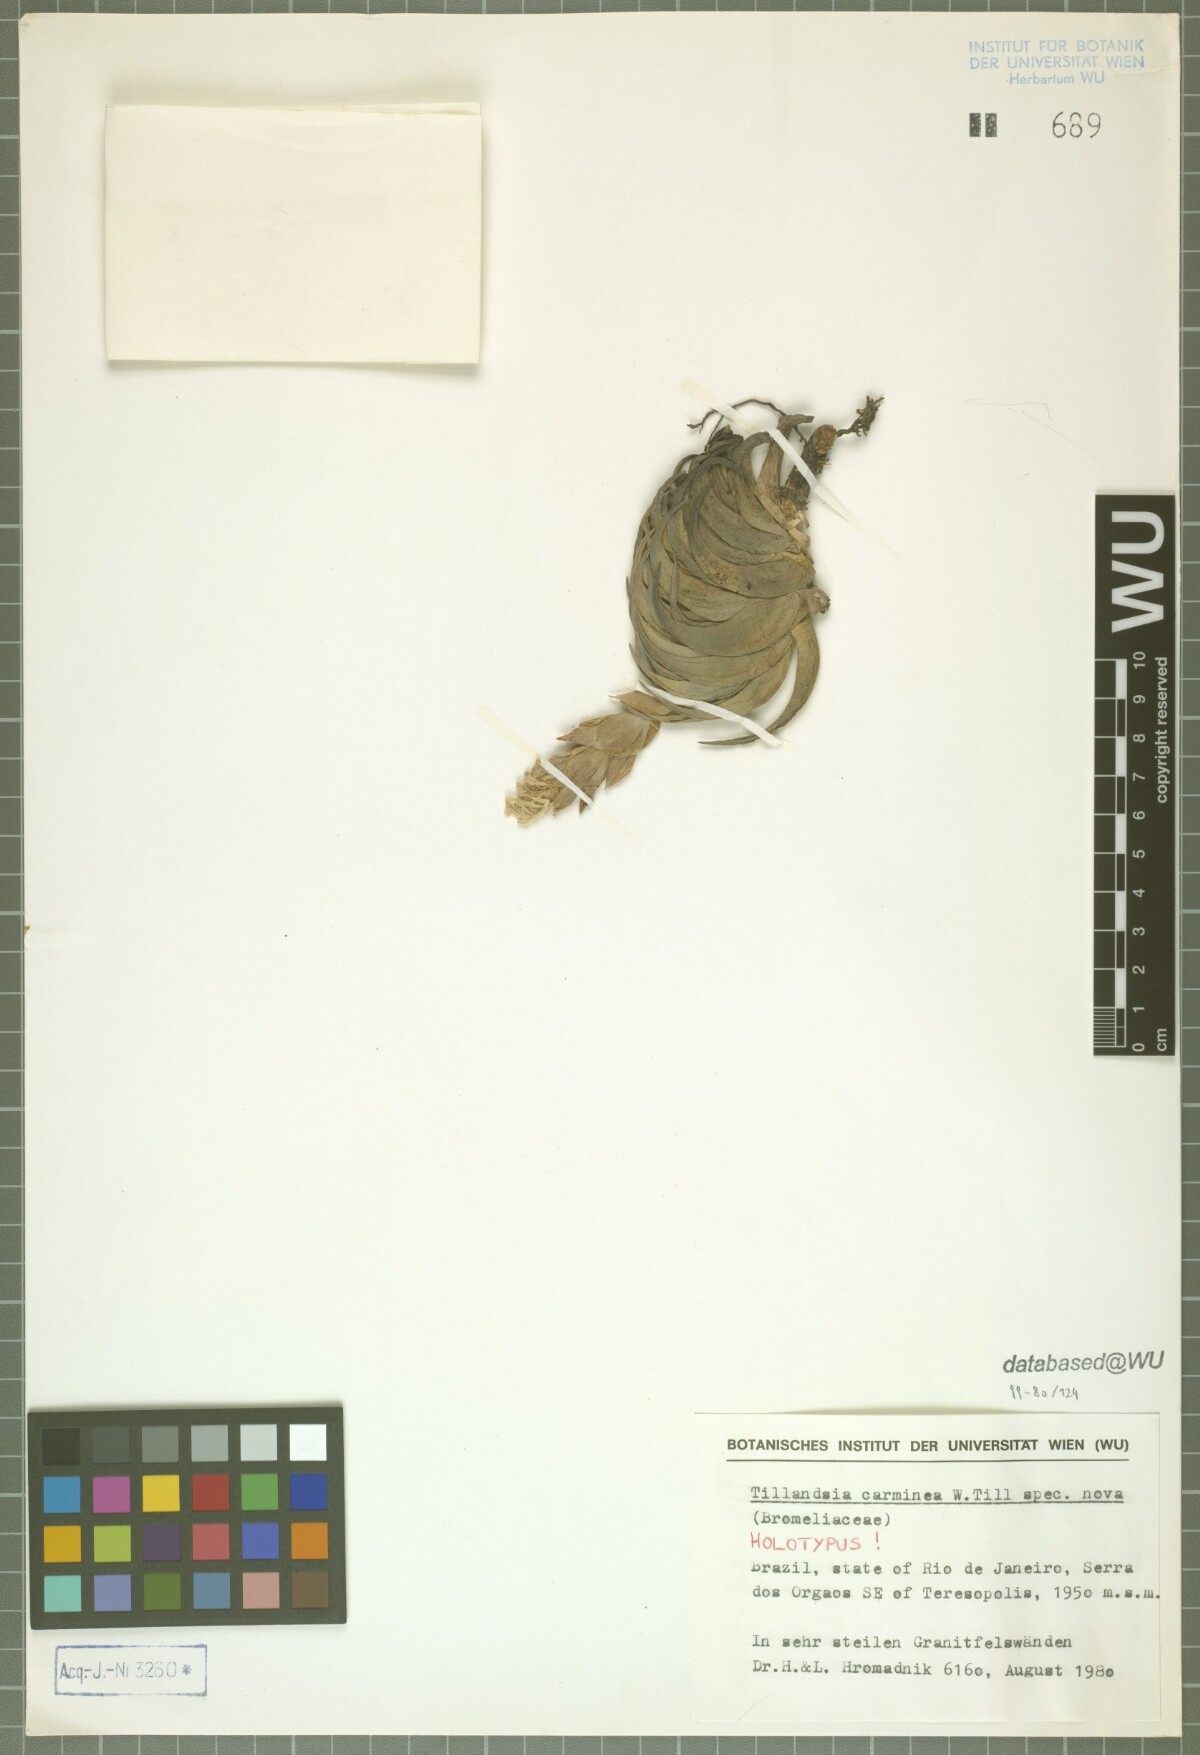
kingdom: Plantae
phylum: Tracheophyta
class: Liliopsida
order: Poales
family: Bromeliaceae
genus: Tillandsia
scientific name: Tillandsia carminea
